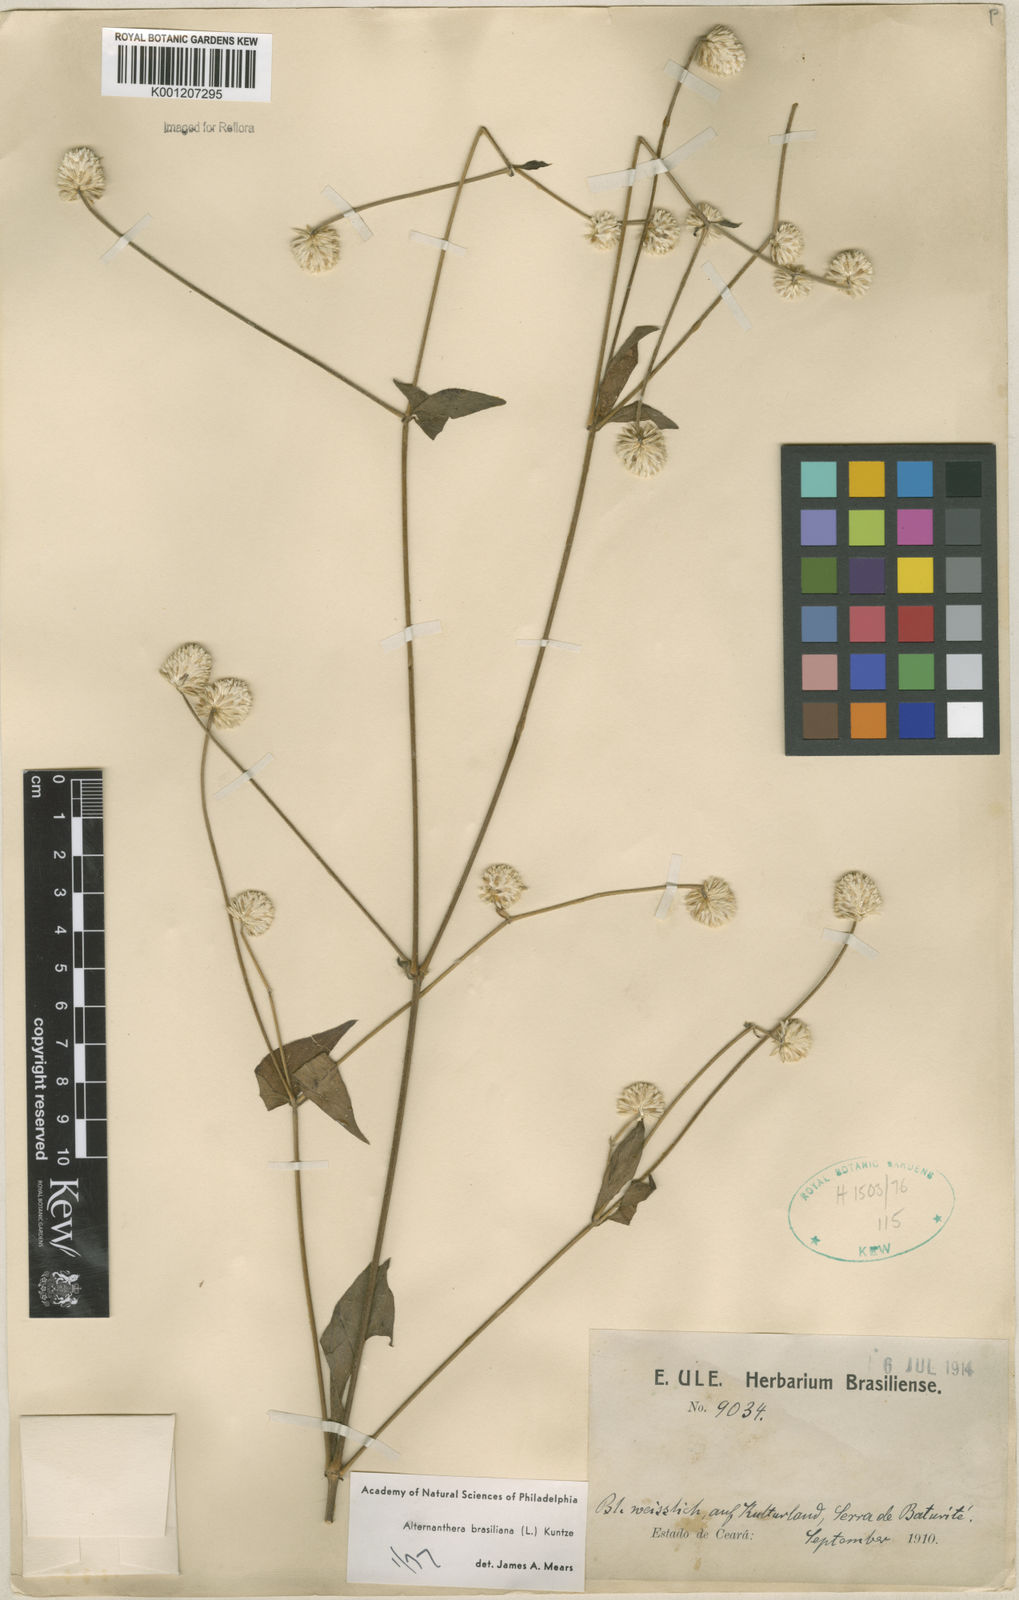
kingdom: Plantae
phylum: Tracheophyta
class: Magnoliopsida
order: Caryophyllales
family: Amaranthaceae
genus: Alternanthera
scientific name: Alternanthera brasiliana
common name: Brazilian joyweed
